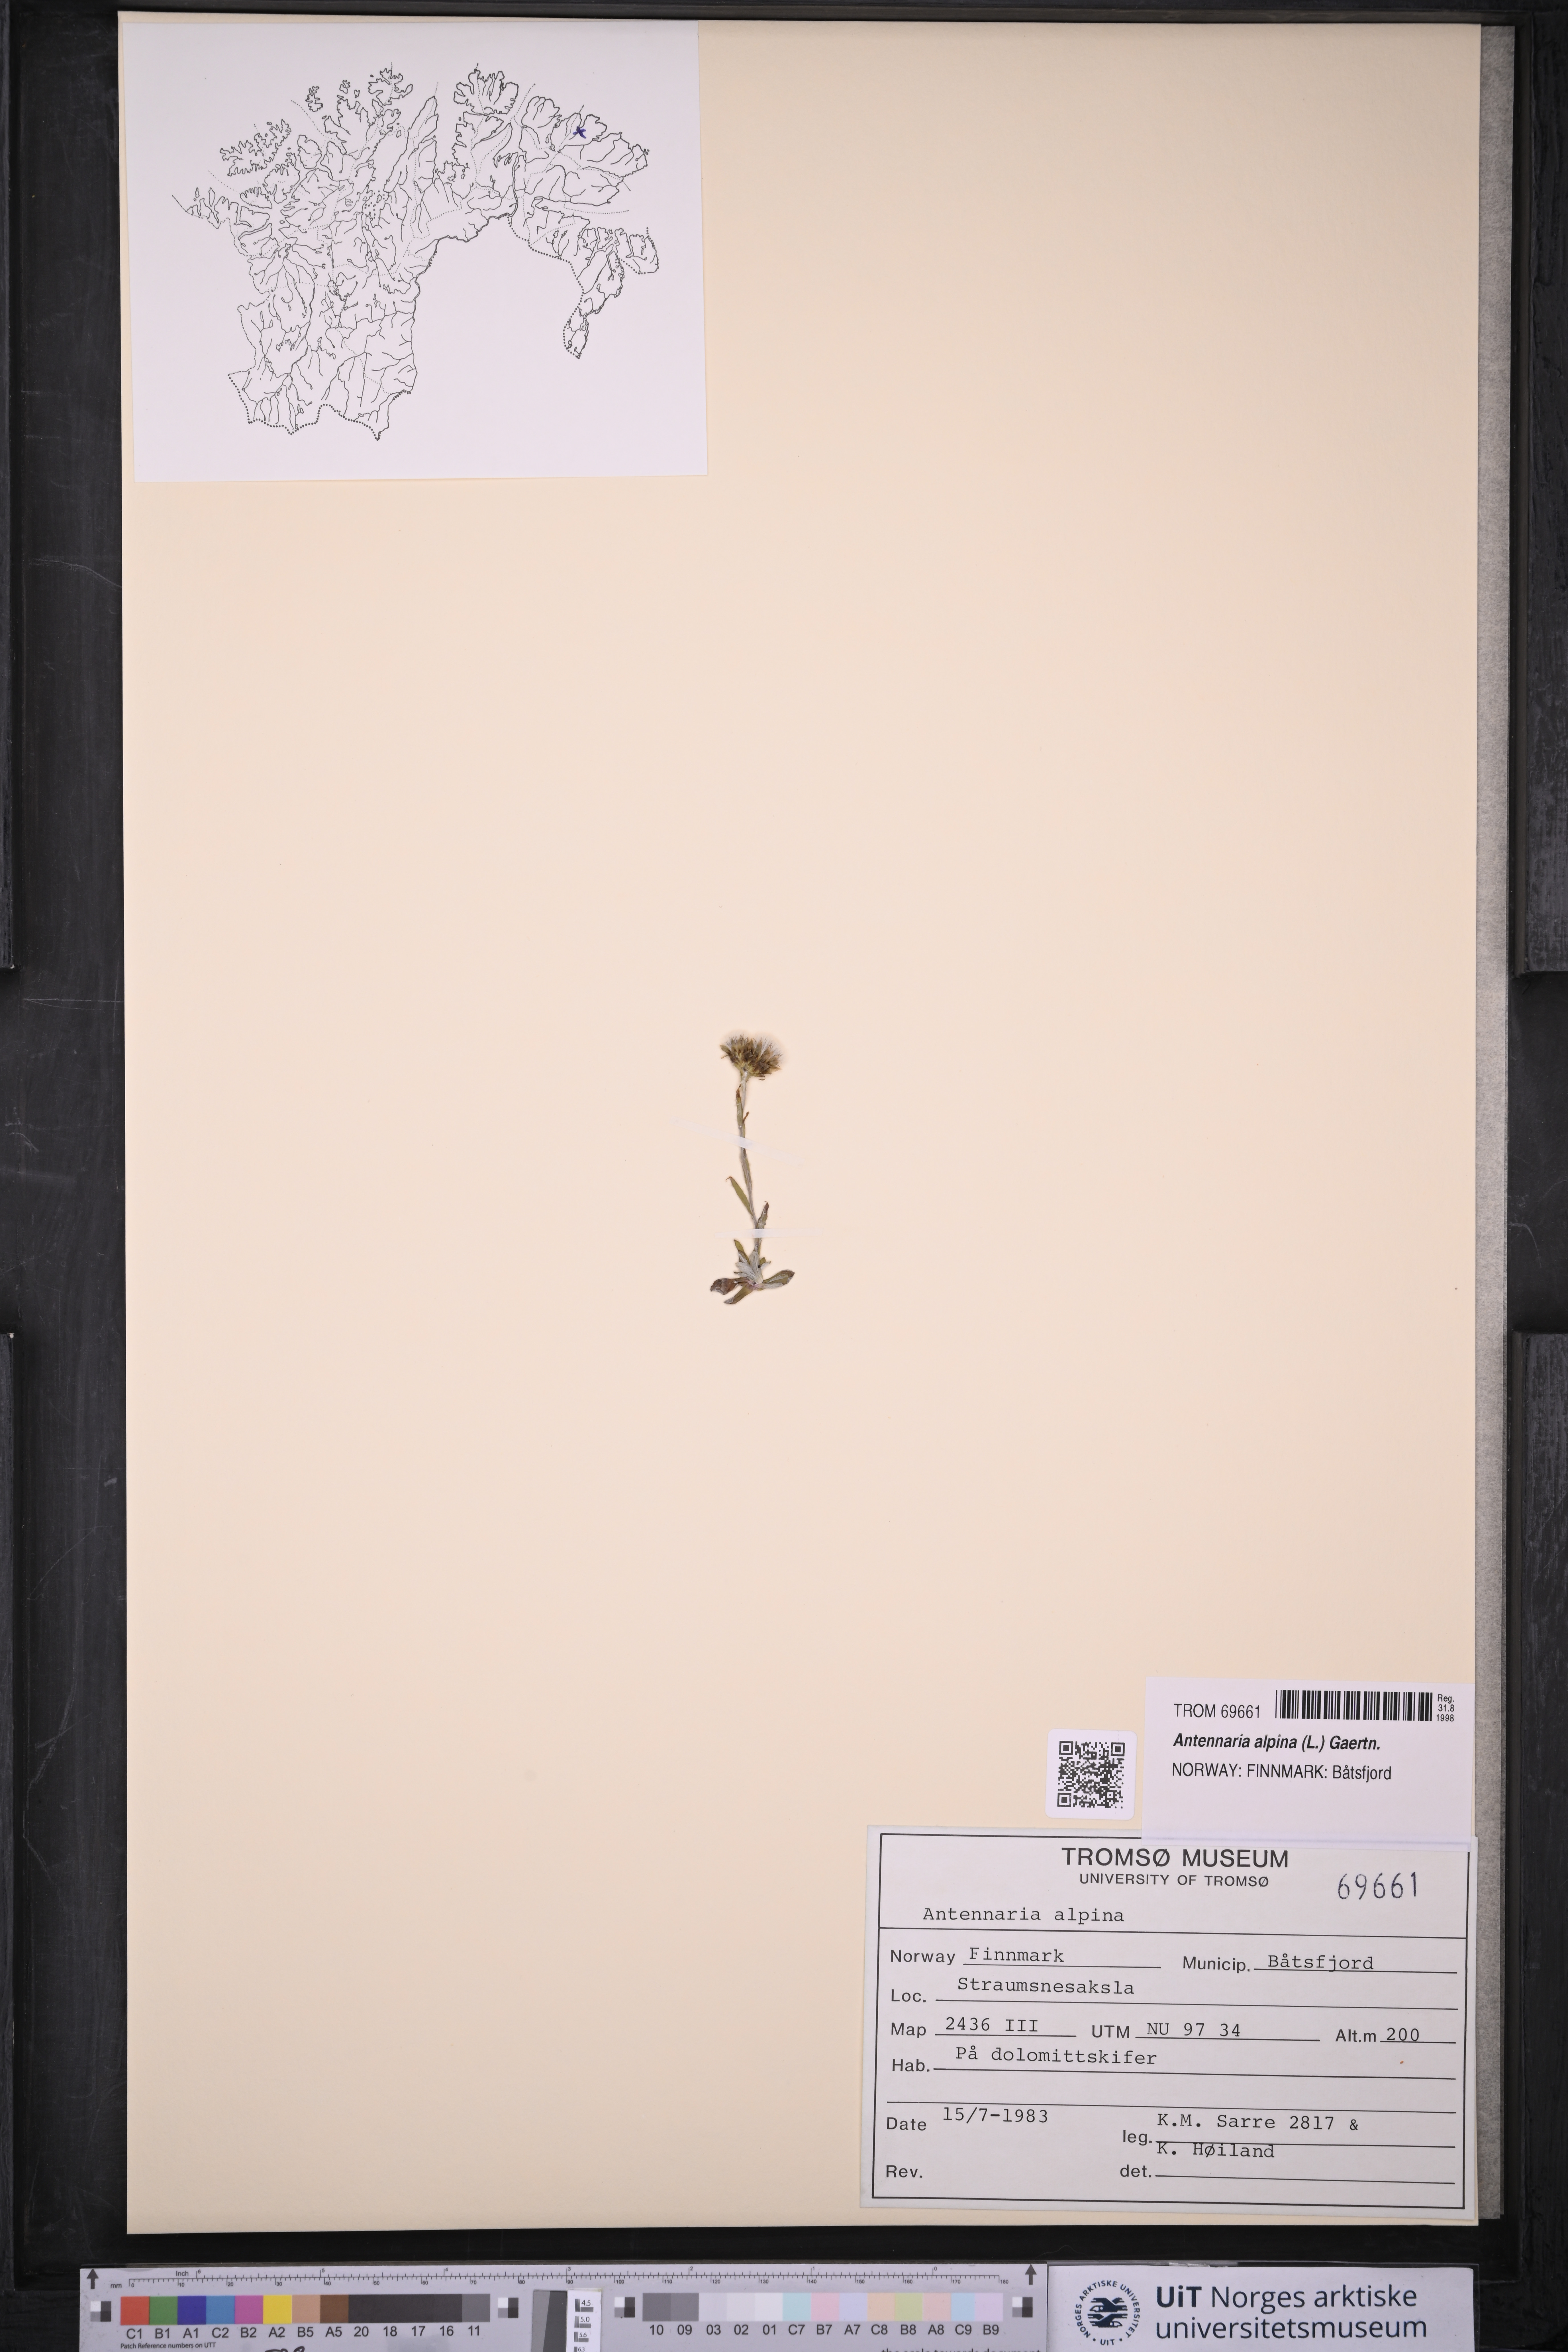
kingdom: Plantae
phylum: Tracheophyta
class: Magnoliopsida
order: Asterales
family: Asteraceae
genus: Antennaria
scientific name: Antennaria alpina
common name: Alpine pussytoes
